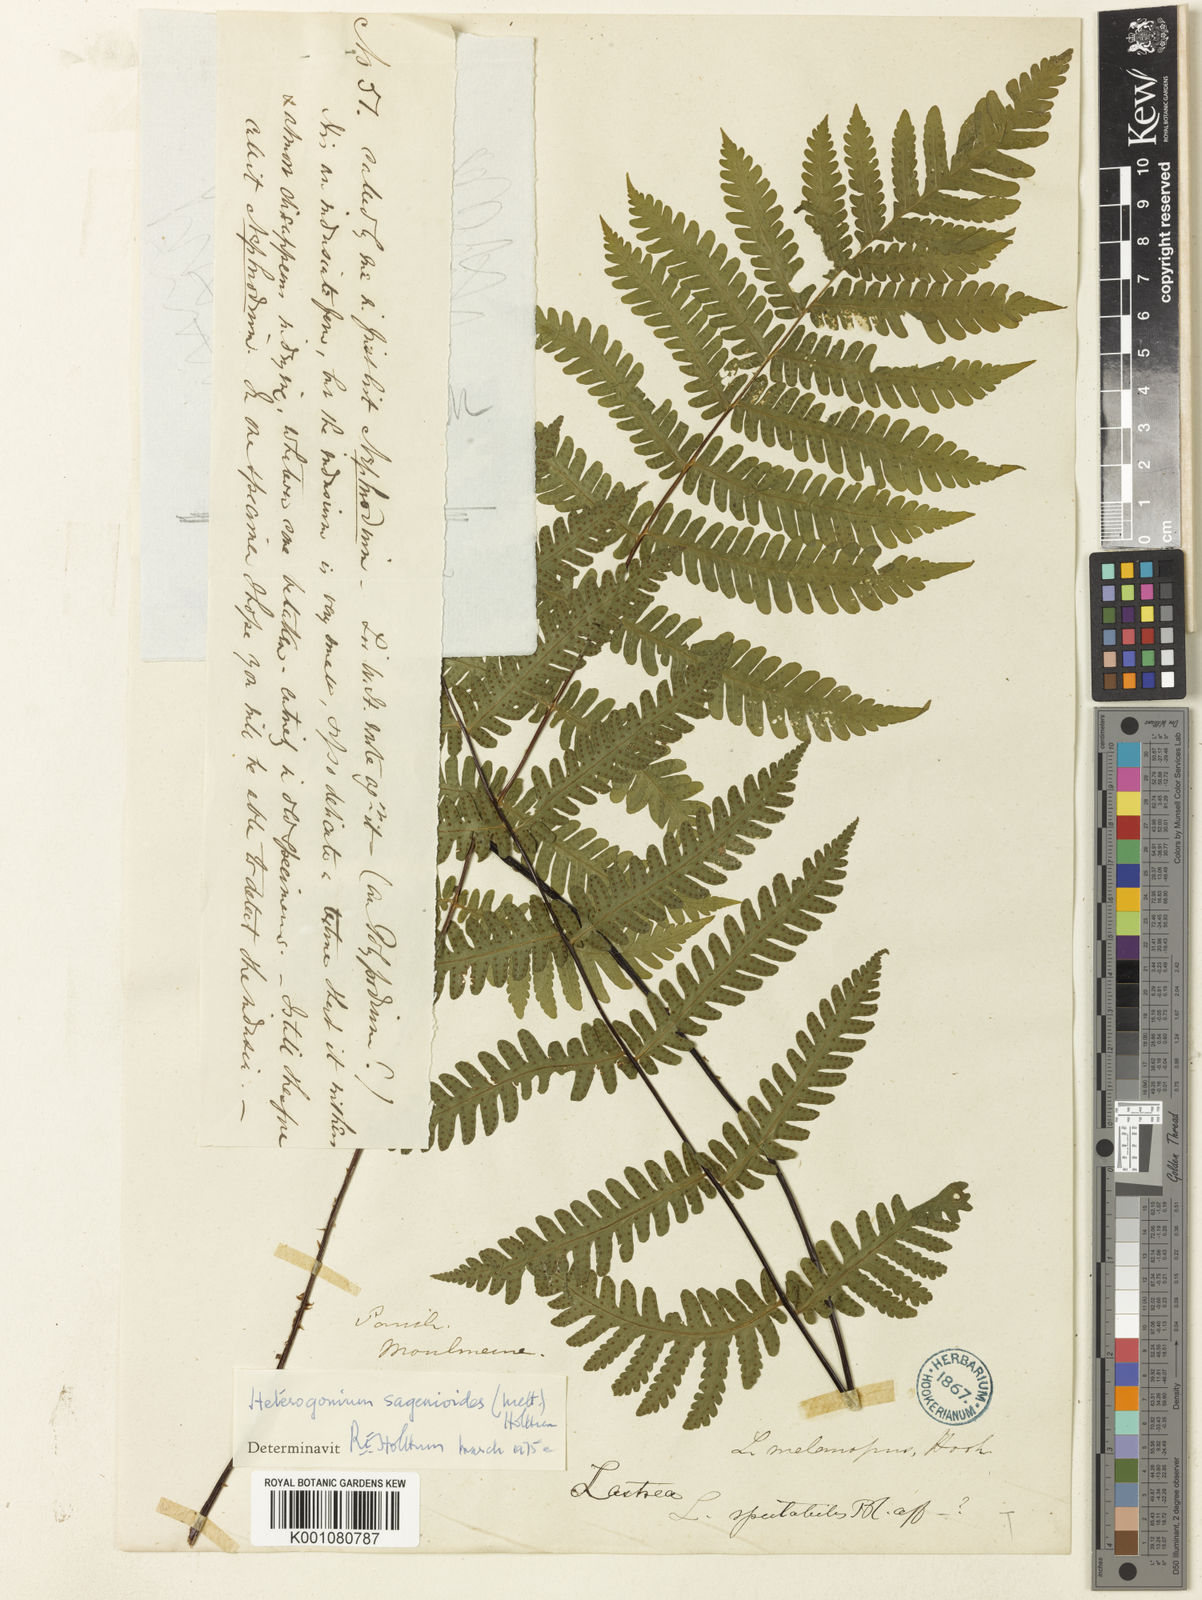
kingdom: Plantae
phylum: Tracheophyta
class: Polypodiopsida
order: Polypodiales
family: Tectariaceae
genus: Tectaria
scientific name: Tectaria sagenioides
